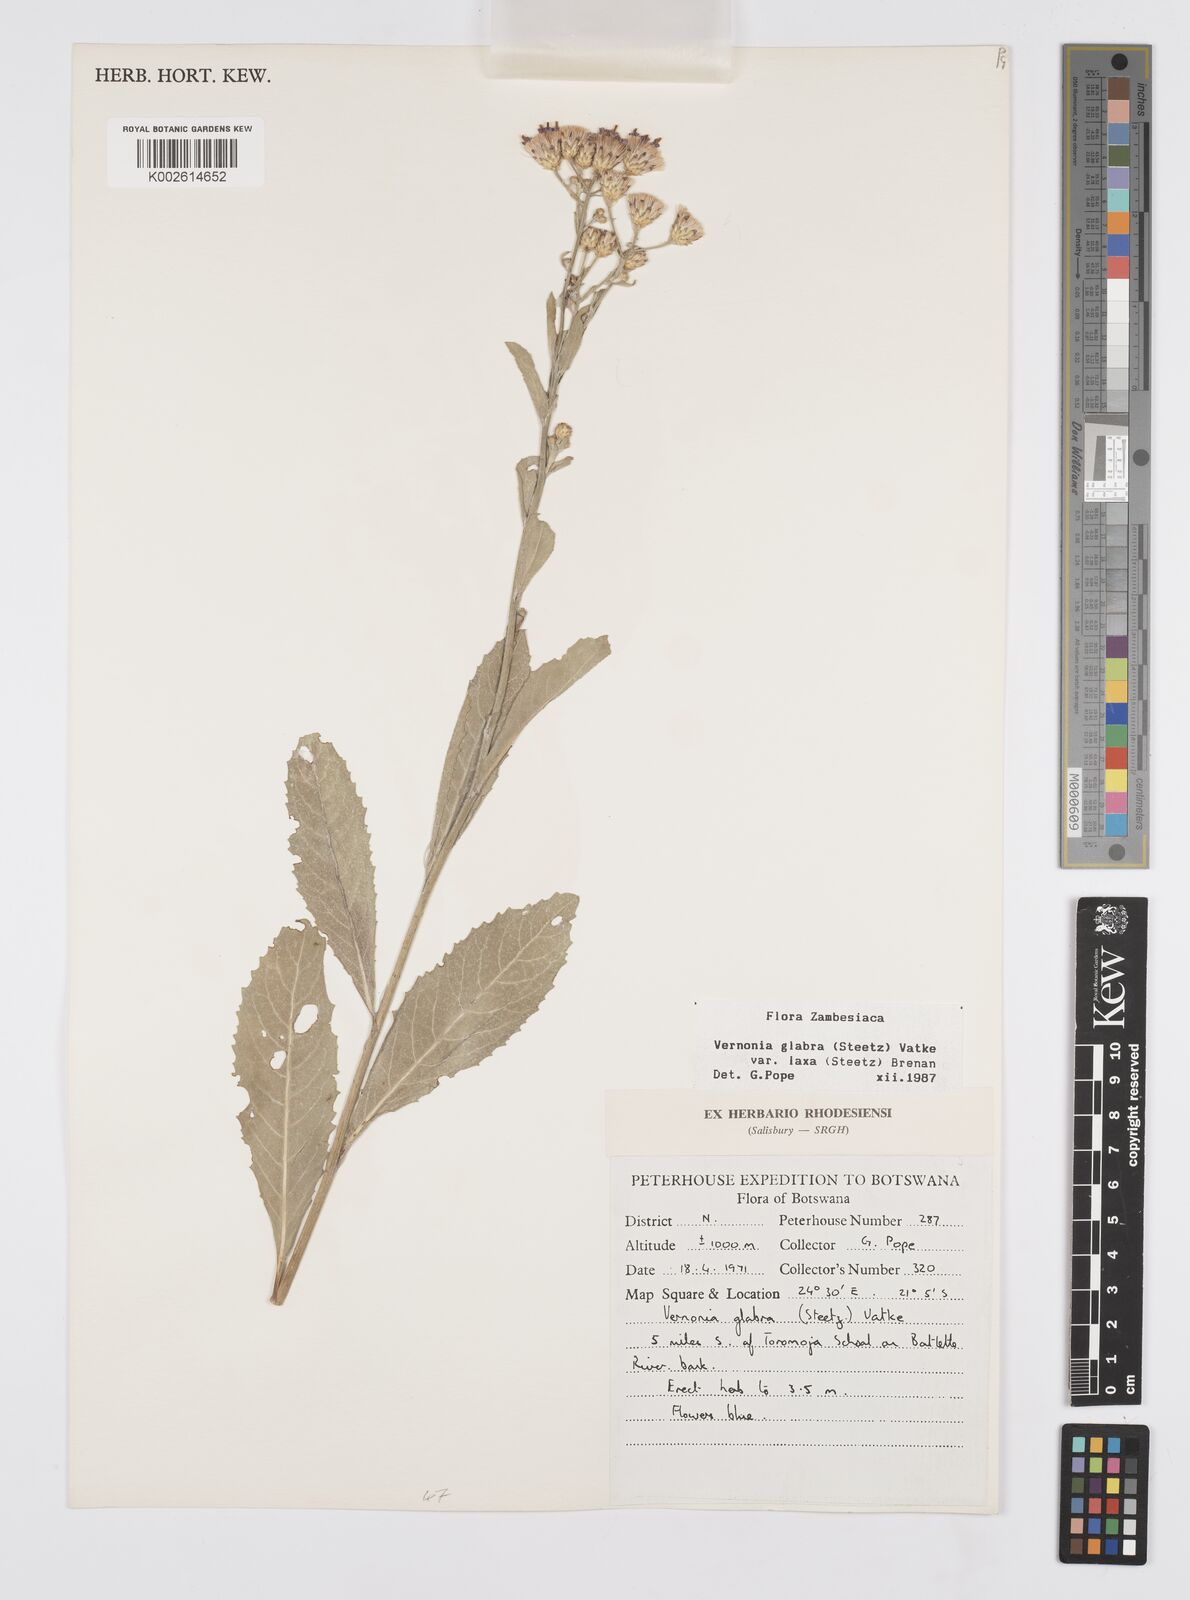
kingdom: Plantae
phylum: Tracheophyta
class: Magnoliopsida
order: Asterales
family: Asteraceae
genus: Linzia
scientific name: Linzia glabra
